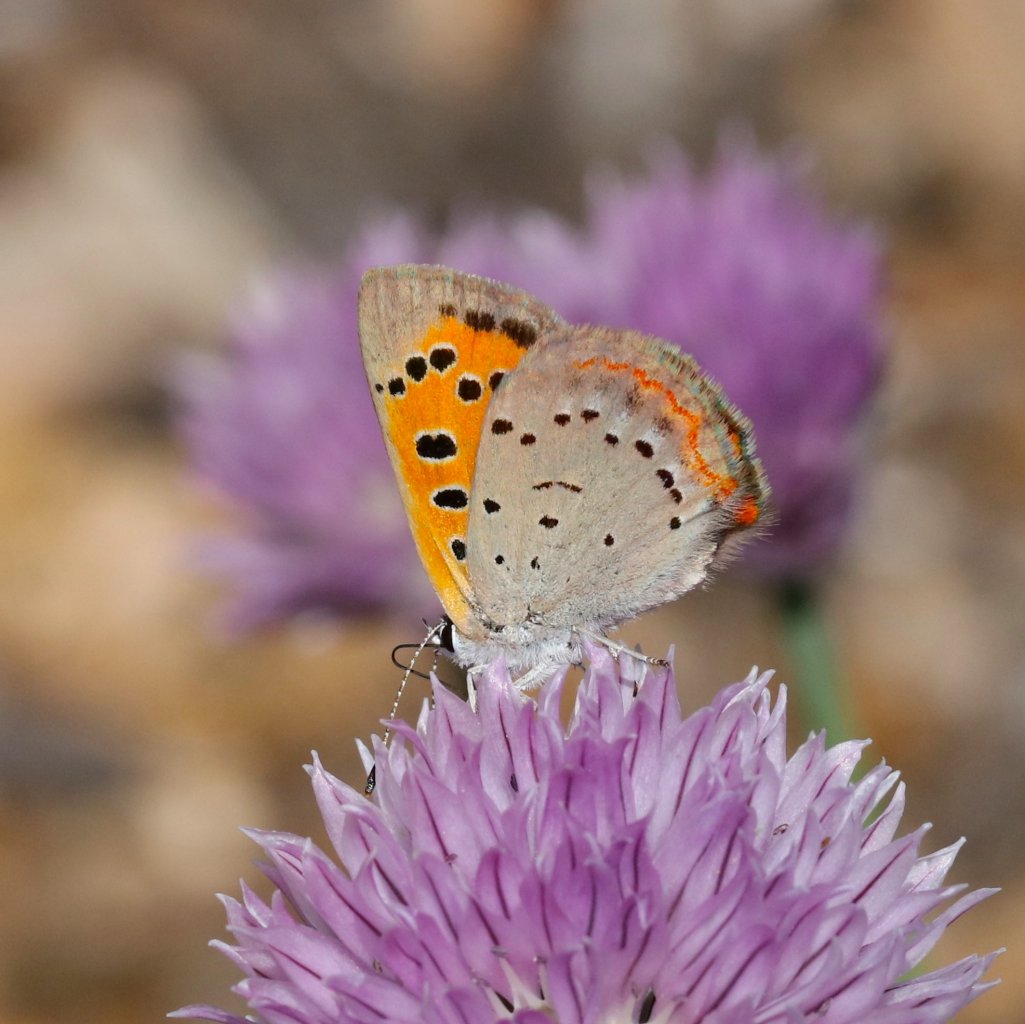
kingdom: Animalia
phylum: Arthropoda
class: Insecta
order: Lepidoptera
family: Lycaenidae
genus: Lycaena
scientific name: Lycaena phlaeas
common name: American Copper
